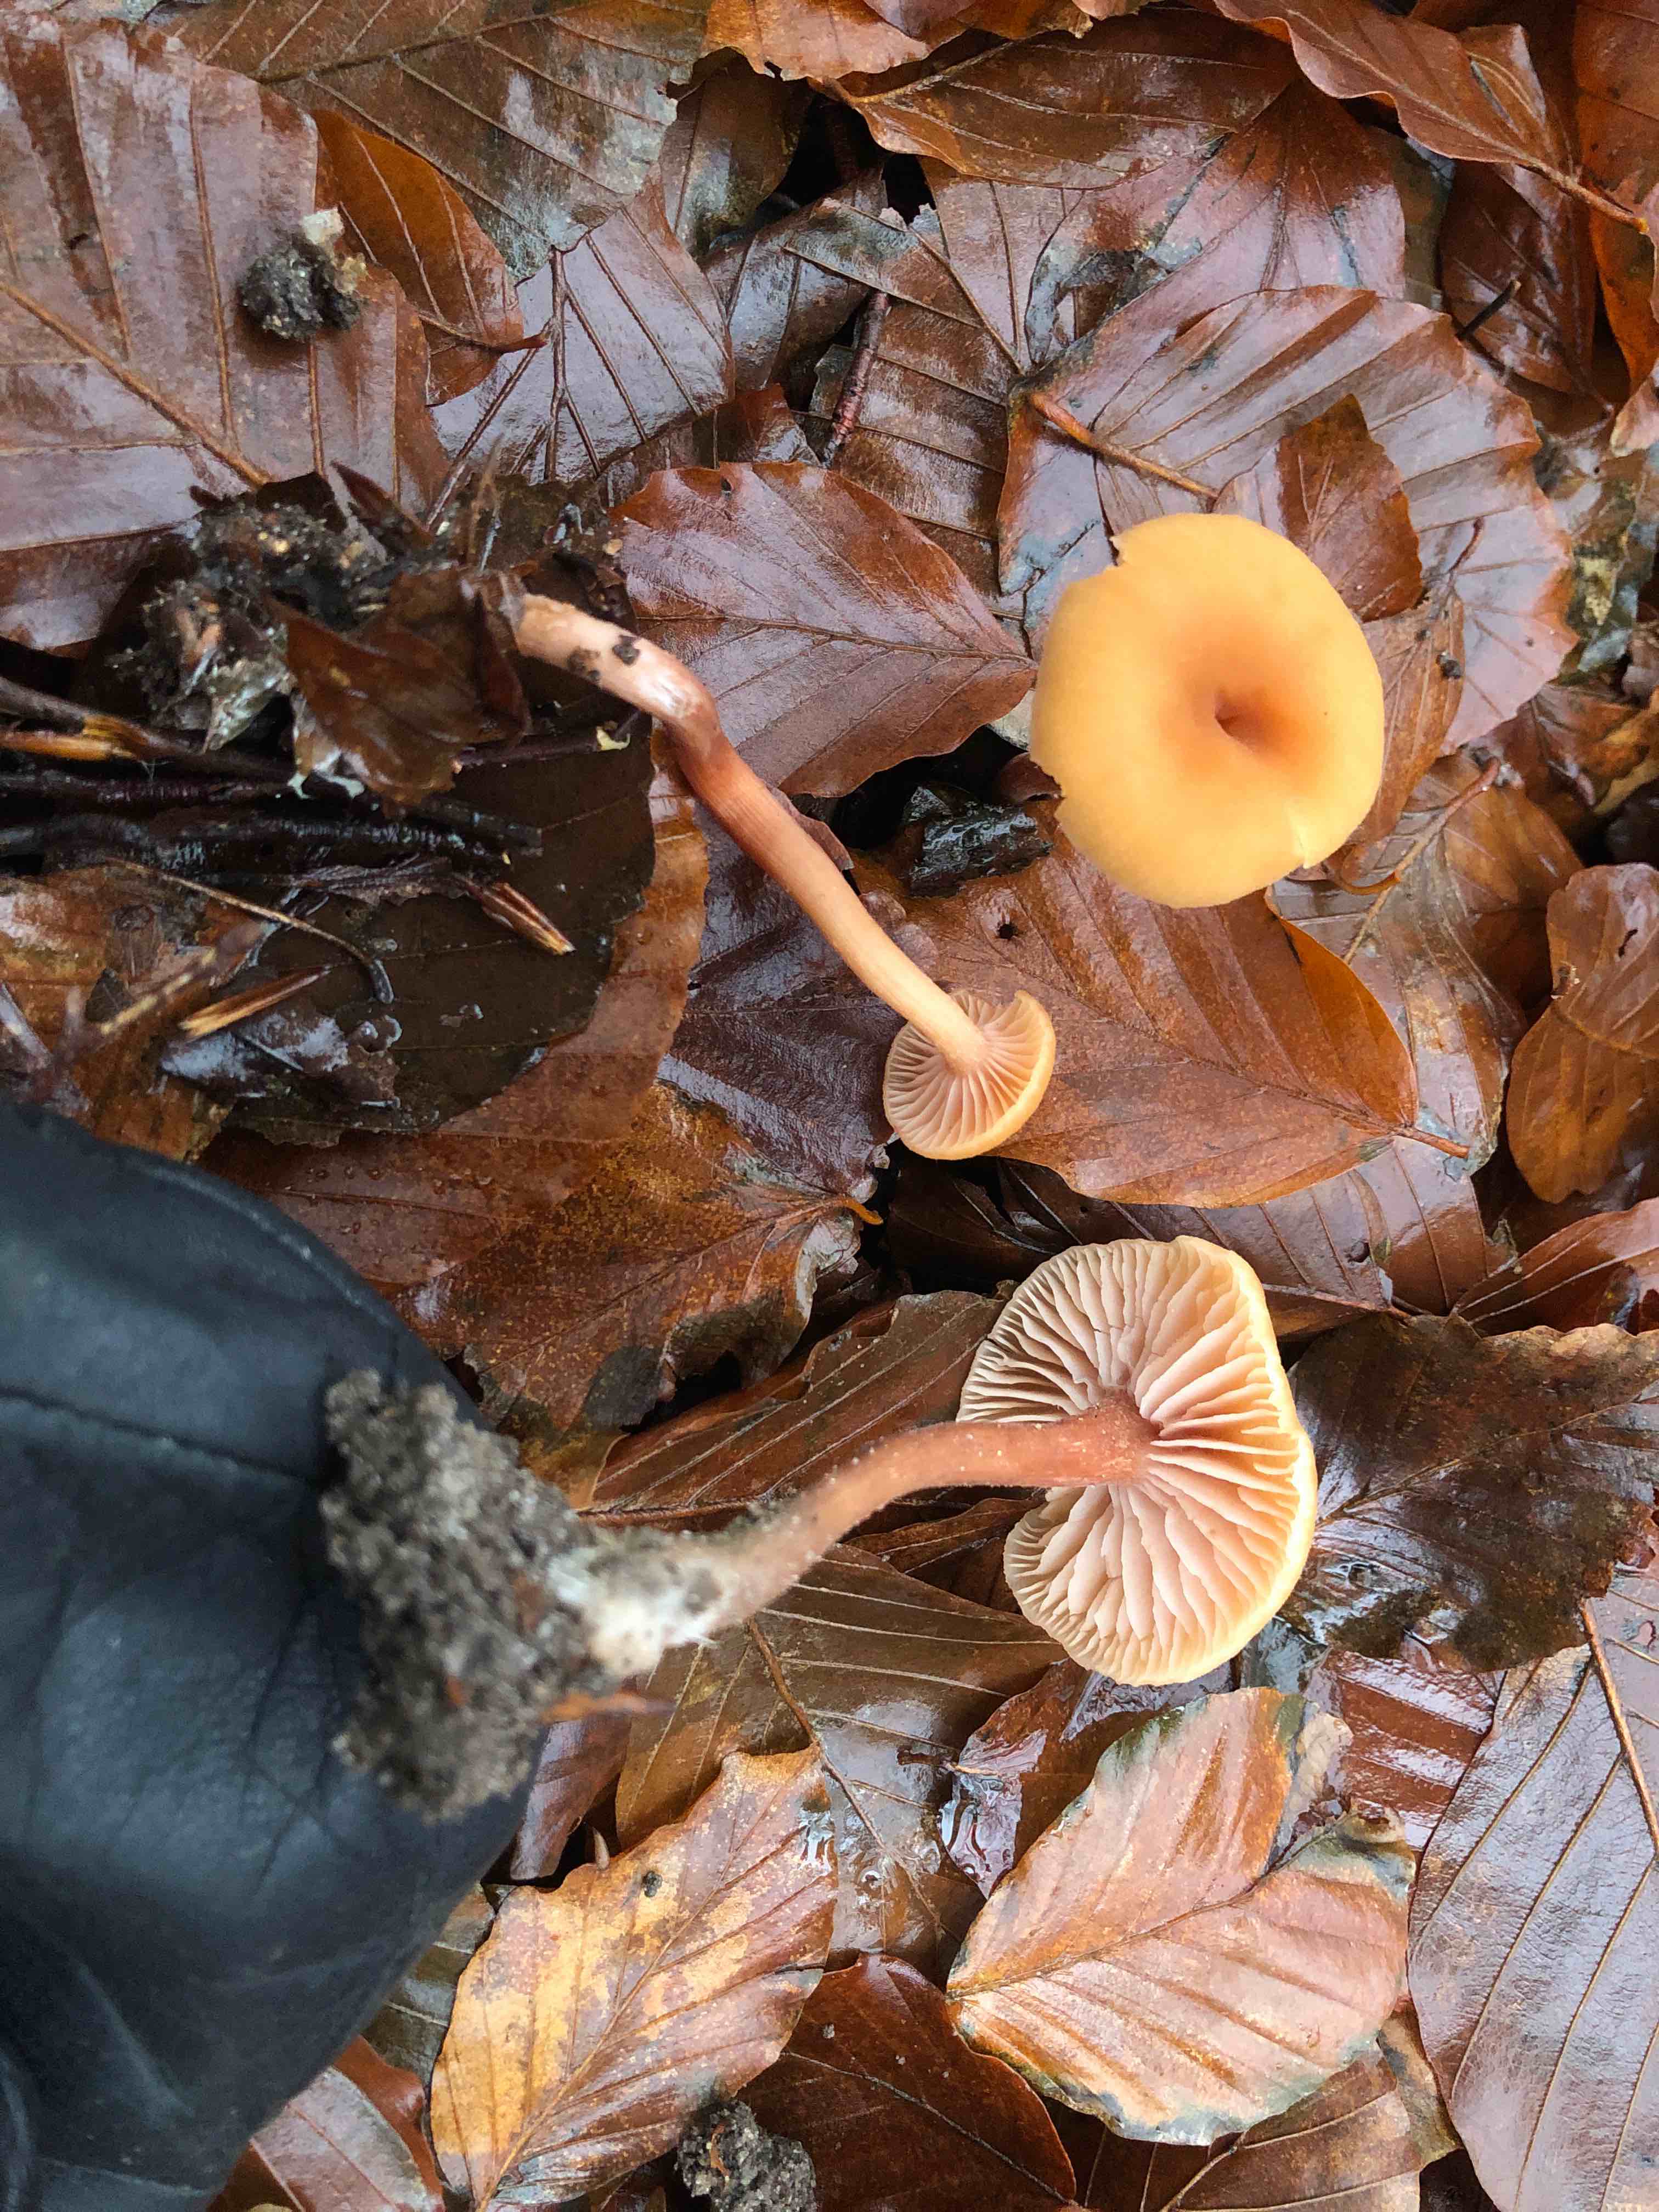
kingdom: Fungi
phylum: Basidiomycota
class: Agaricomycetes
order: Agaricales
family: Hydnangiaceae
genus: Laccaria
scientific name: Laccaria laccata
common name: rød ametysthat
